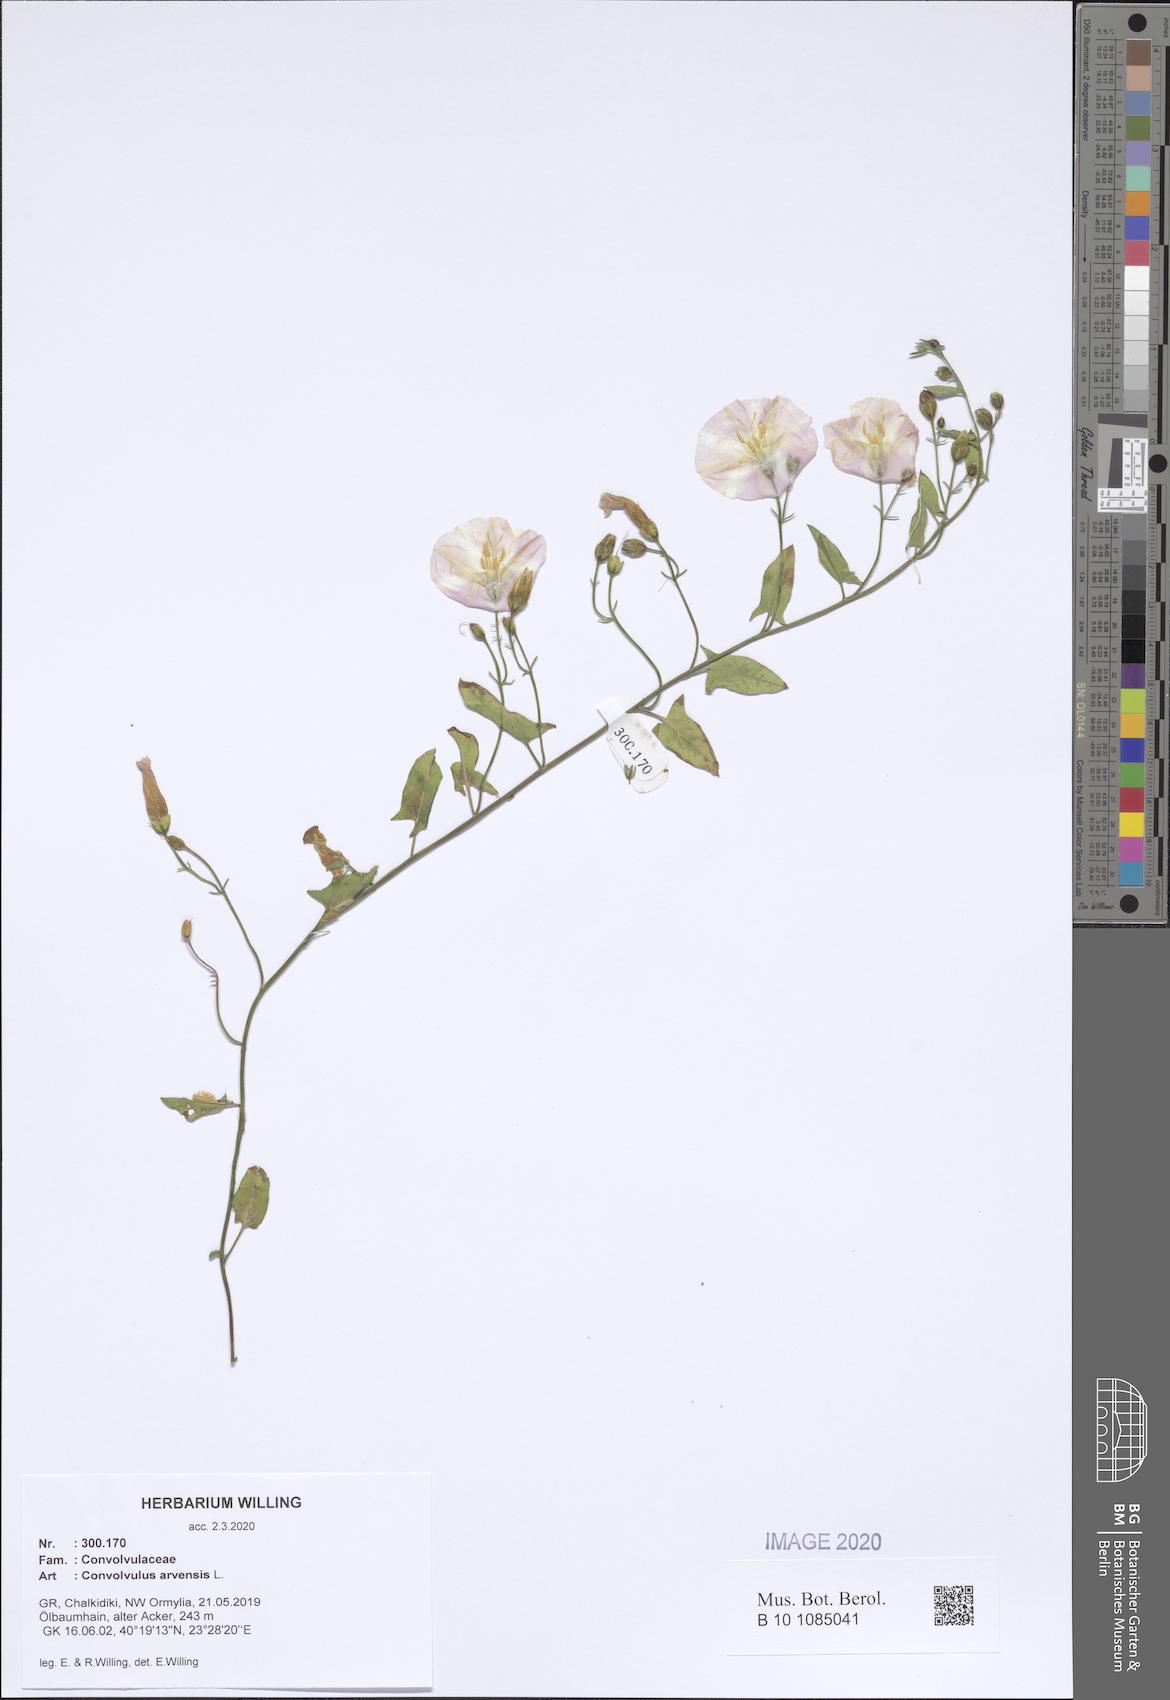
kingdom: Plantae
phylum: Tracheophyta
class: Magnoliopsida
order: Solanales
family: Convolvulaceae
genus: Convolvulus
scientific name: Convolvulus arvensis
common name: Field bindweed
